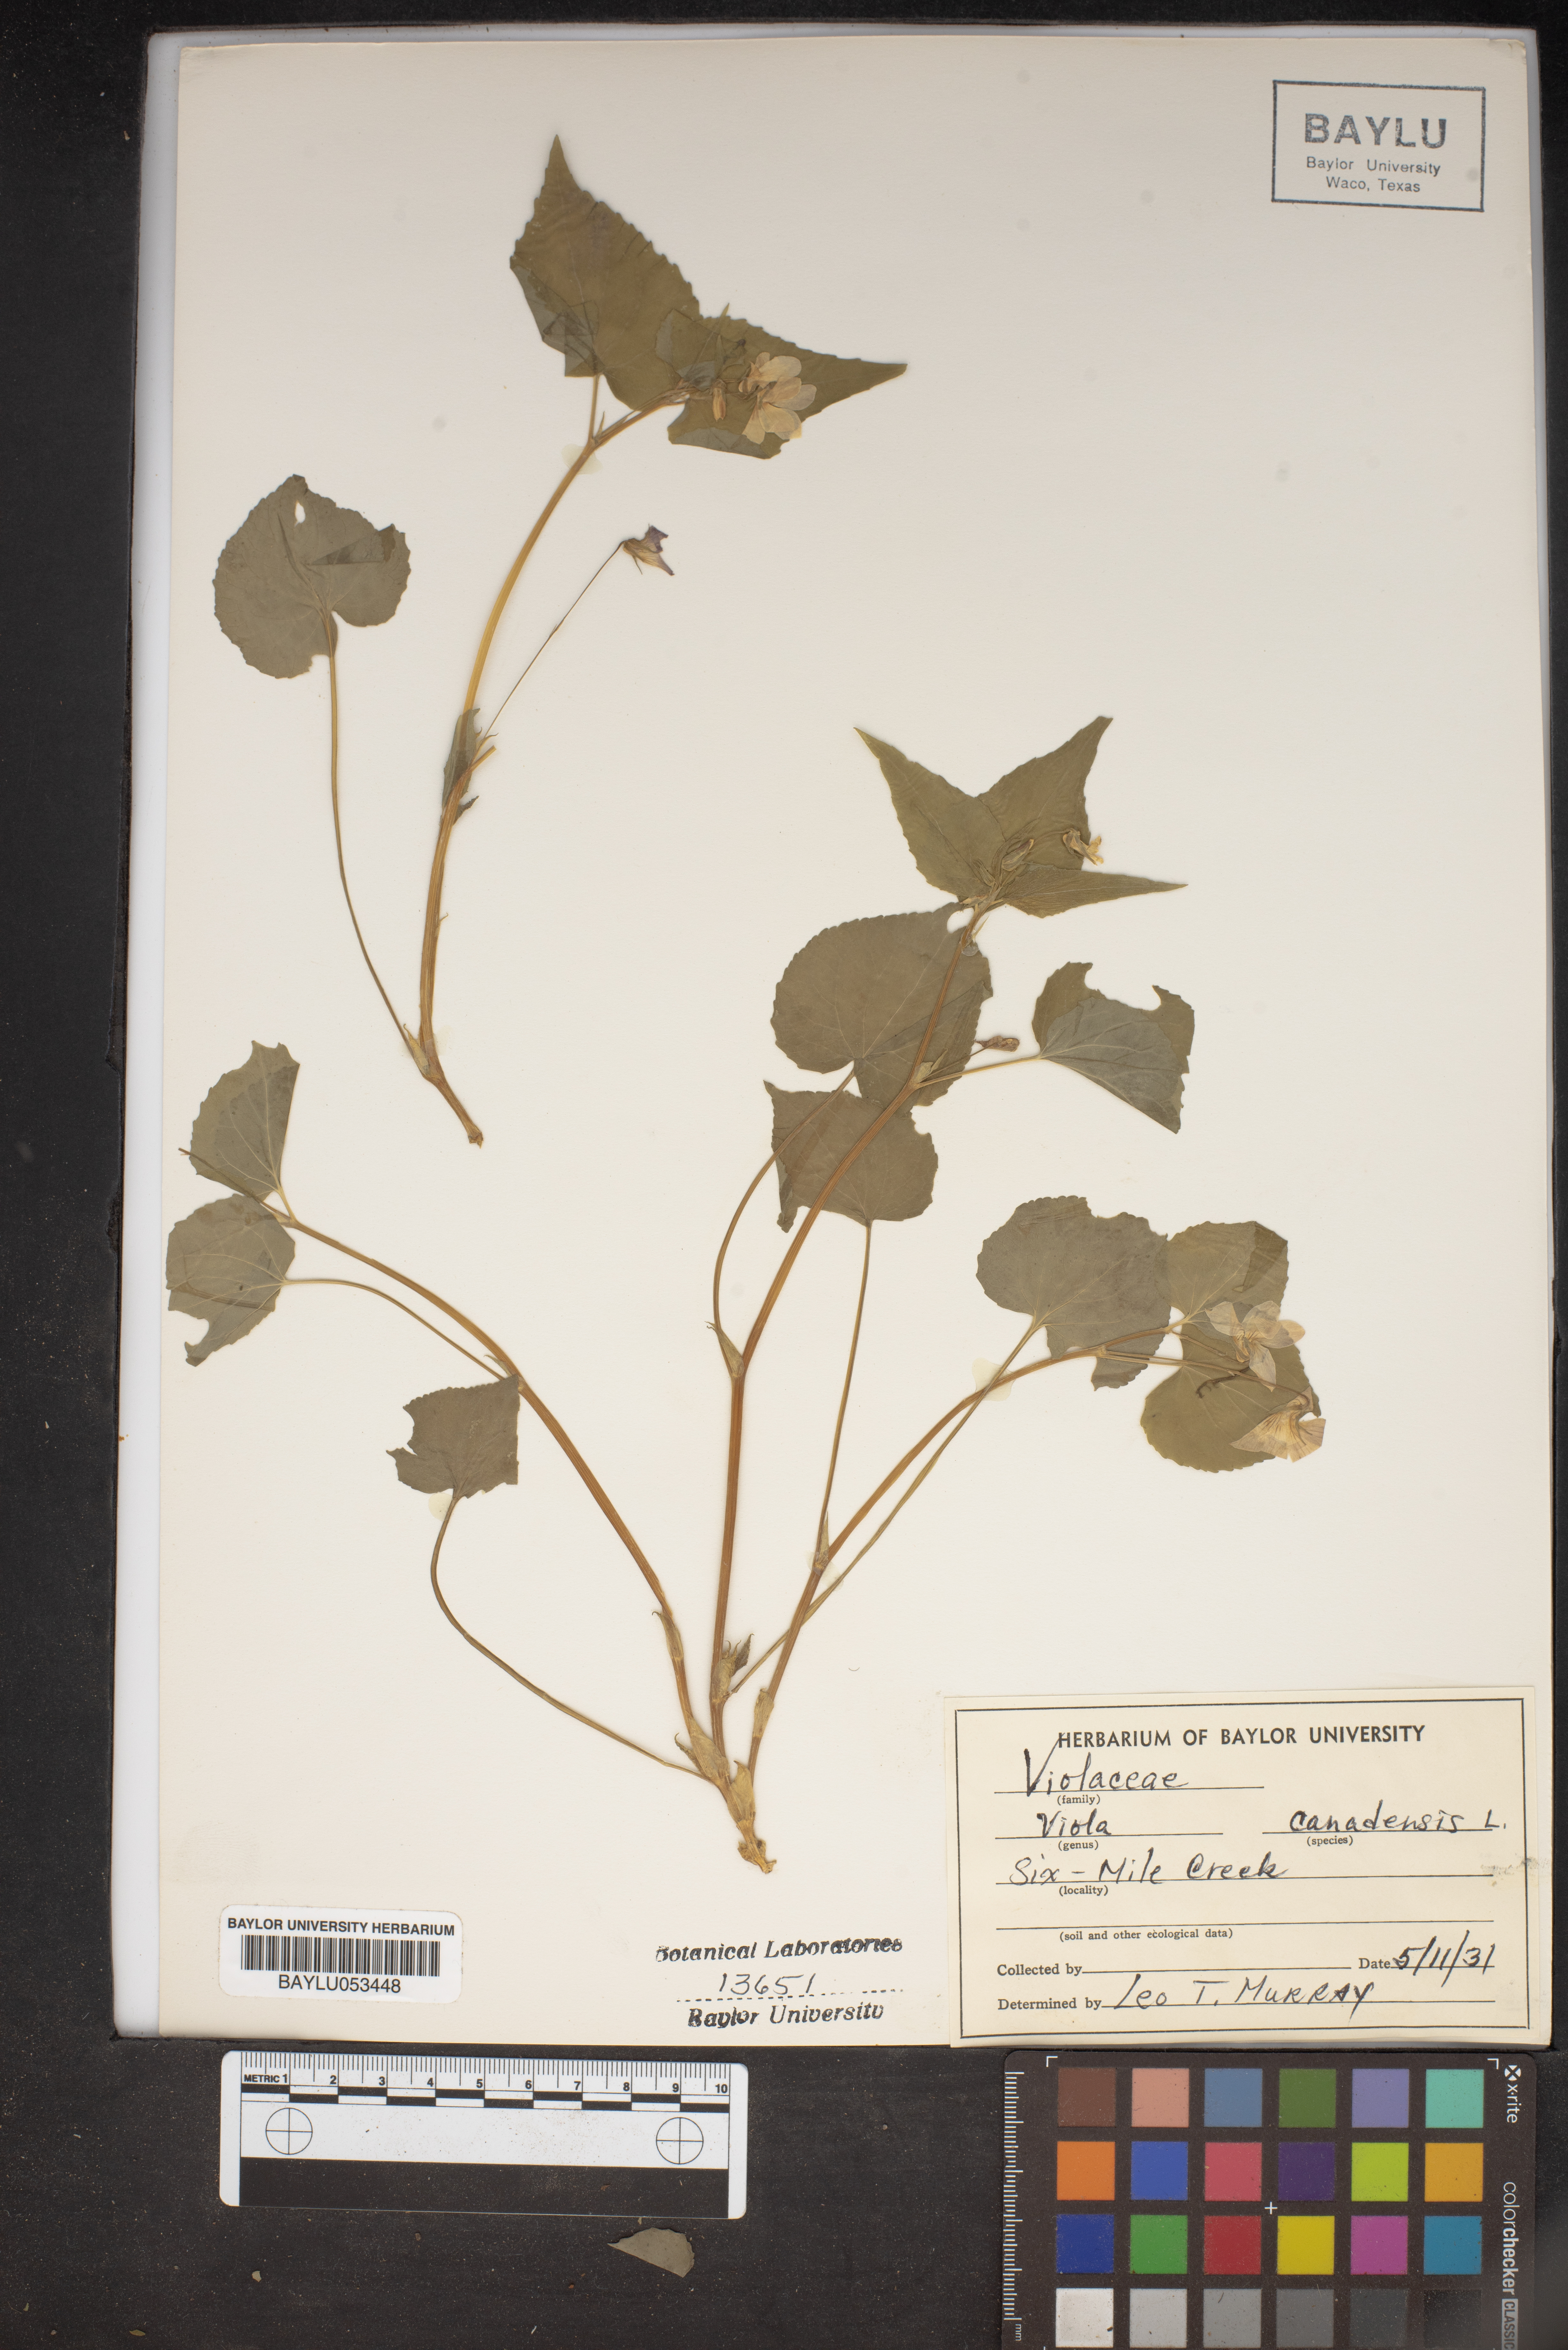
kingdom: Plantae
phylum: Tracheophyta
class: Magnoliopsida
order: Malpighiales
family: Violaceae
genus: Viola
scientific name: Viola canadensis
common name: Canada violet
